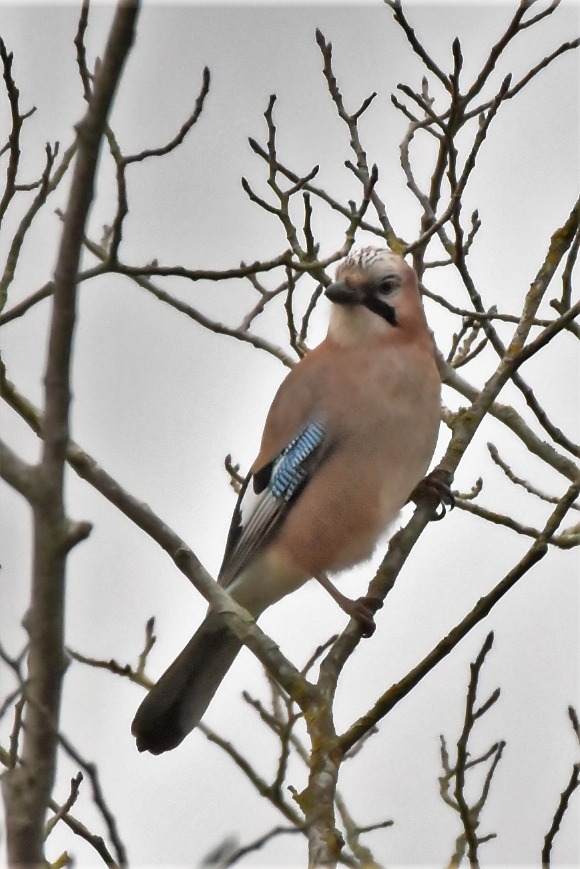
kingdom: Animalia
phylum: Chordata
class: Aves
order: Passeriformes
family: Corvidae
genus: Garrulus
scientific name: Garrulus glandarius
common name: Skovskade
